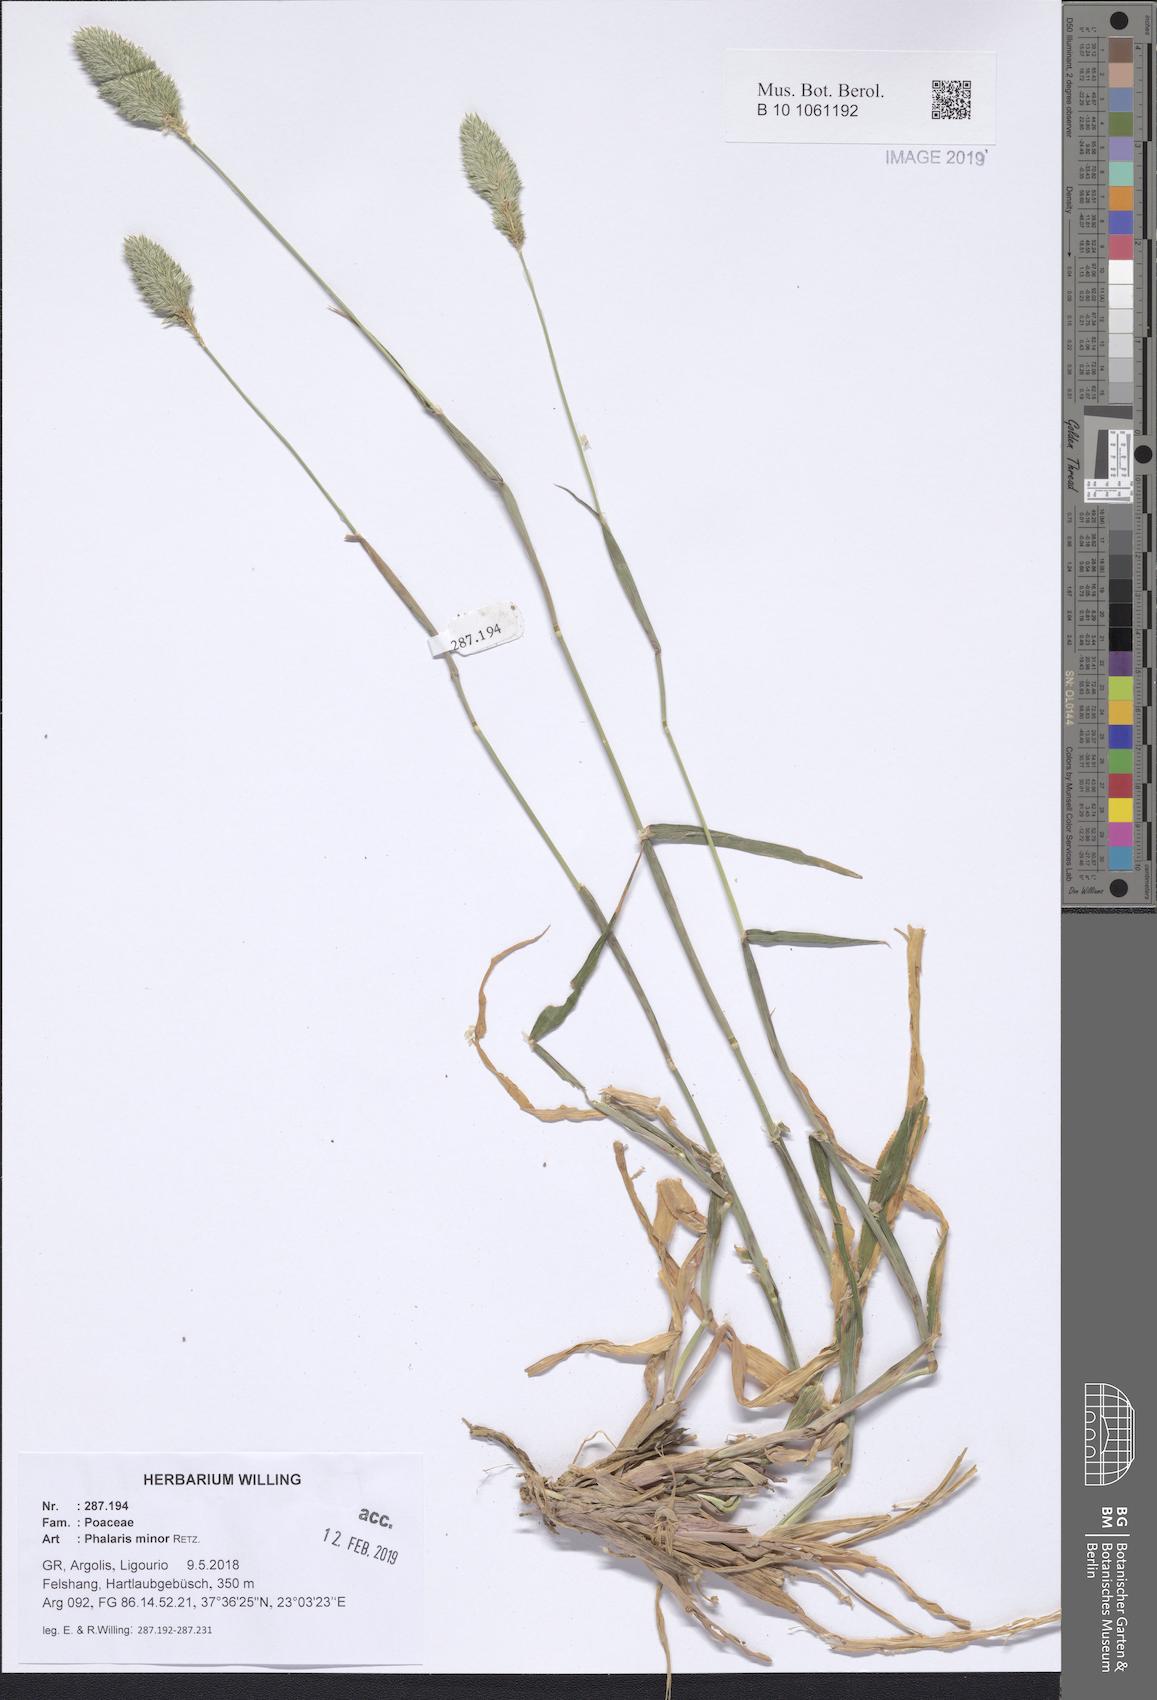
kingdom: Plantae
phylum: Tracheophyta
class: Liliopsida
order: Poales
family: Poaceae
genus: Phalaris
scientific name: Phalaris minor
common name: Littleseed canarygrass
